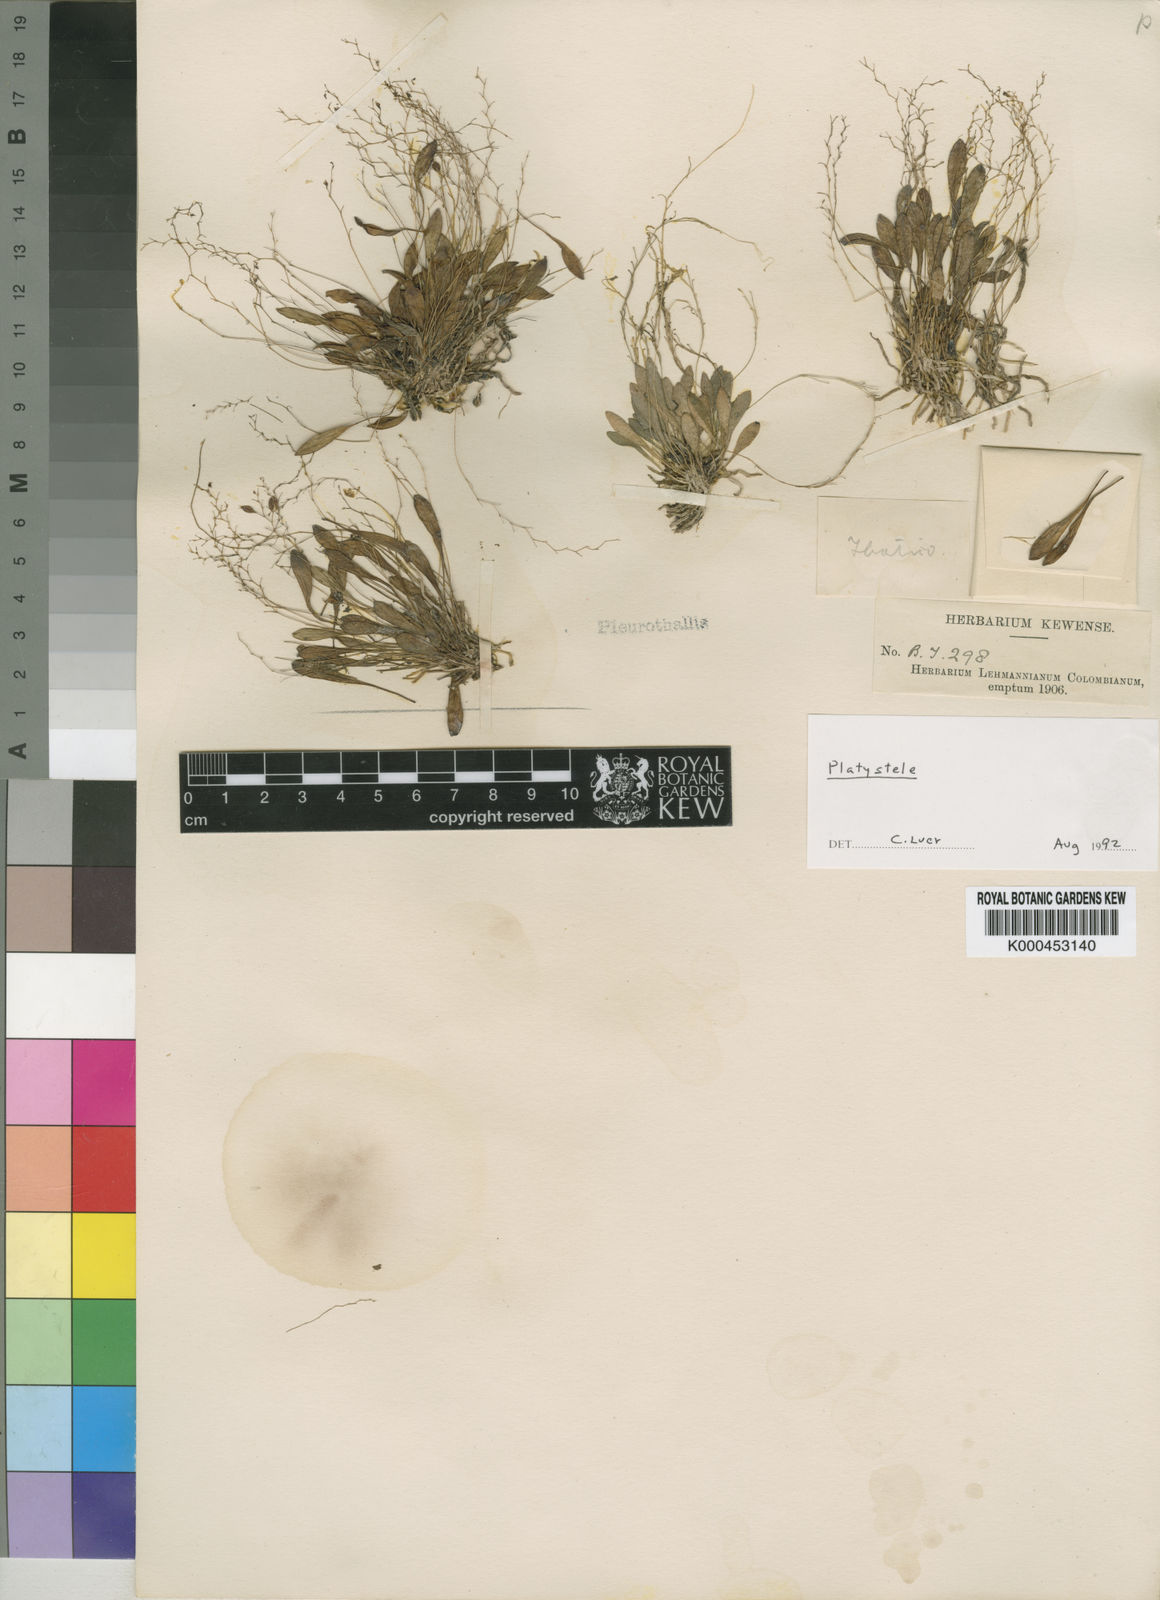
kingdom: Plantae
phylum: Tracheophyta
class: Liliopsida
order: Asparagales
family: Orchidaceae
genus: Platystele
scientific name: Platystele
